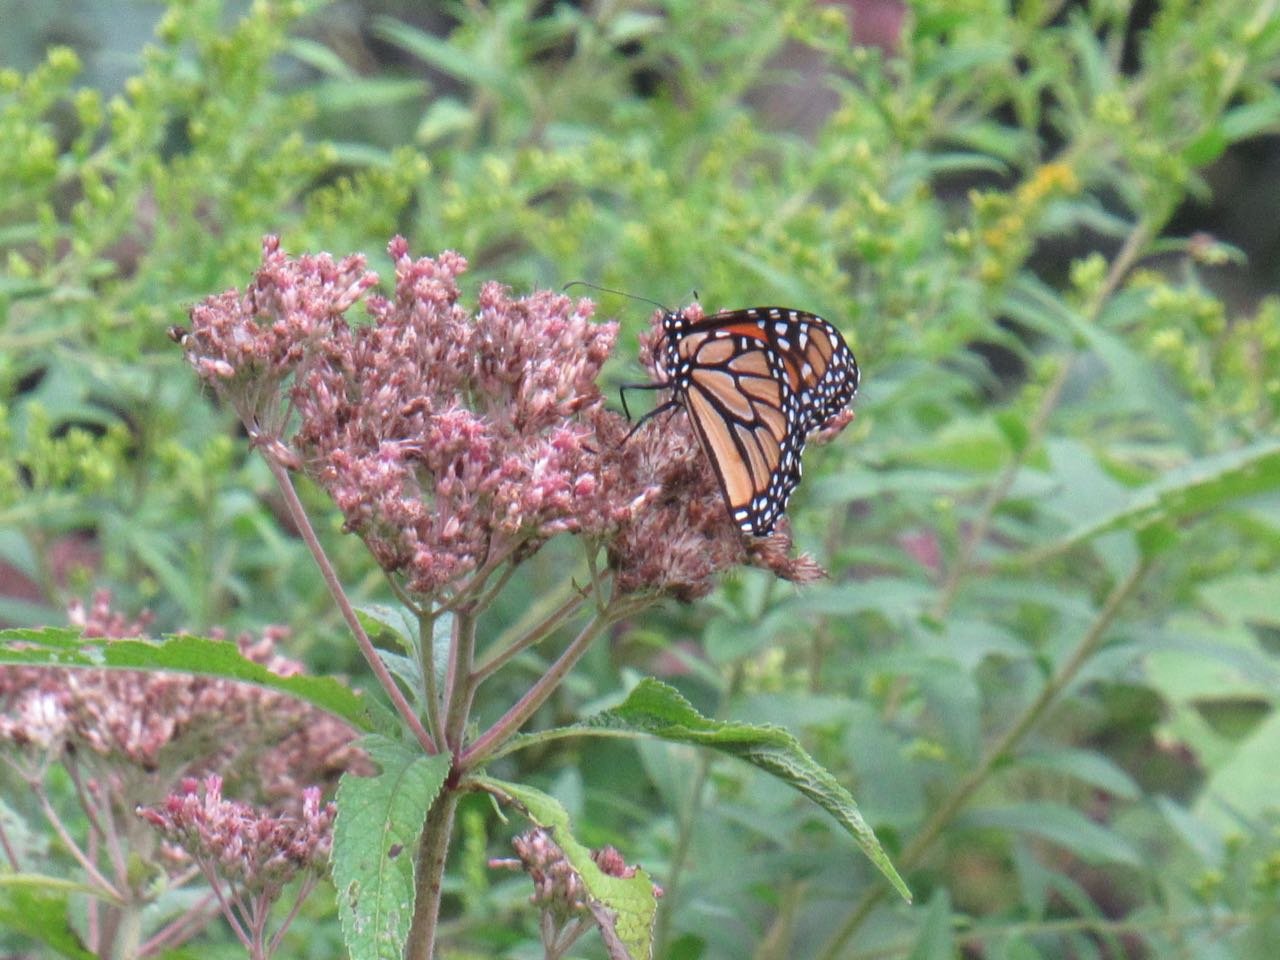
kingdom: Animalia
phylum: Arthropoda
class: Insecta
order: Lepidoptera
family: Nymphalidae
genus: Danaus
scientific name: Danaus plexippus
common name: Monarch
